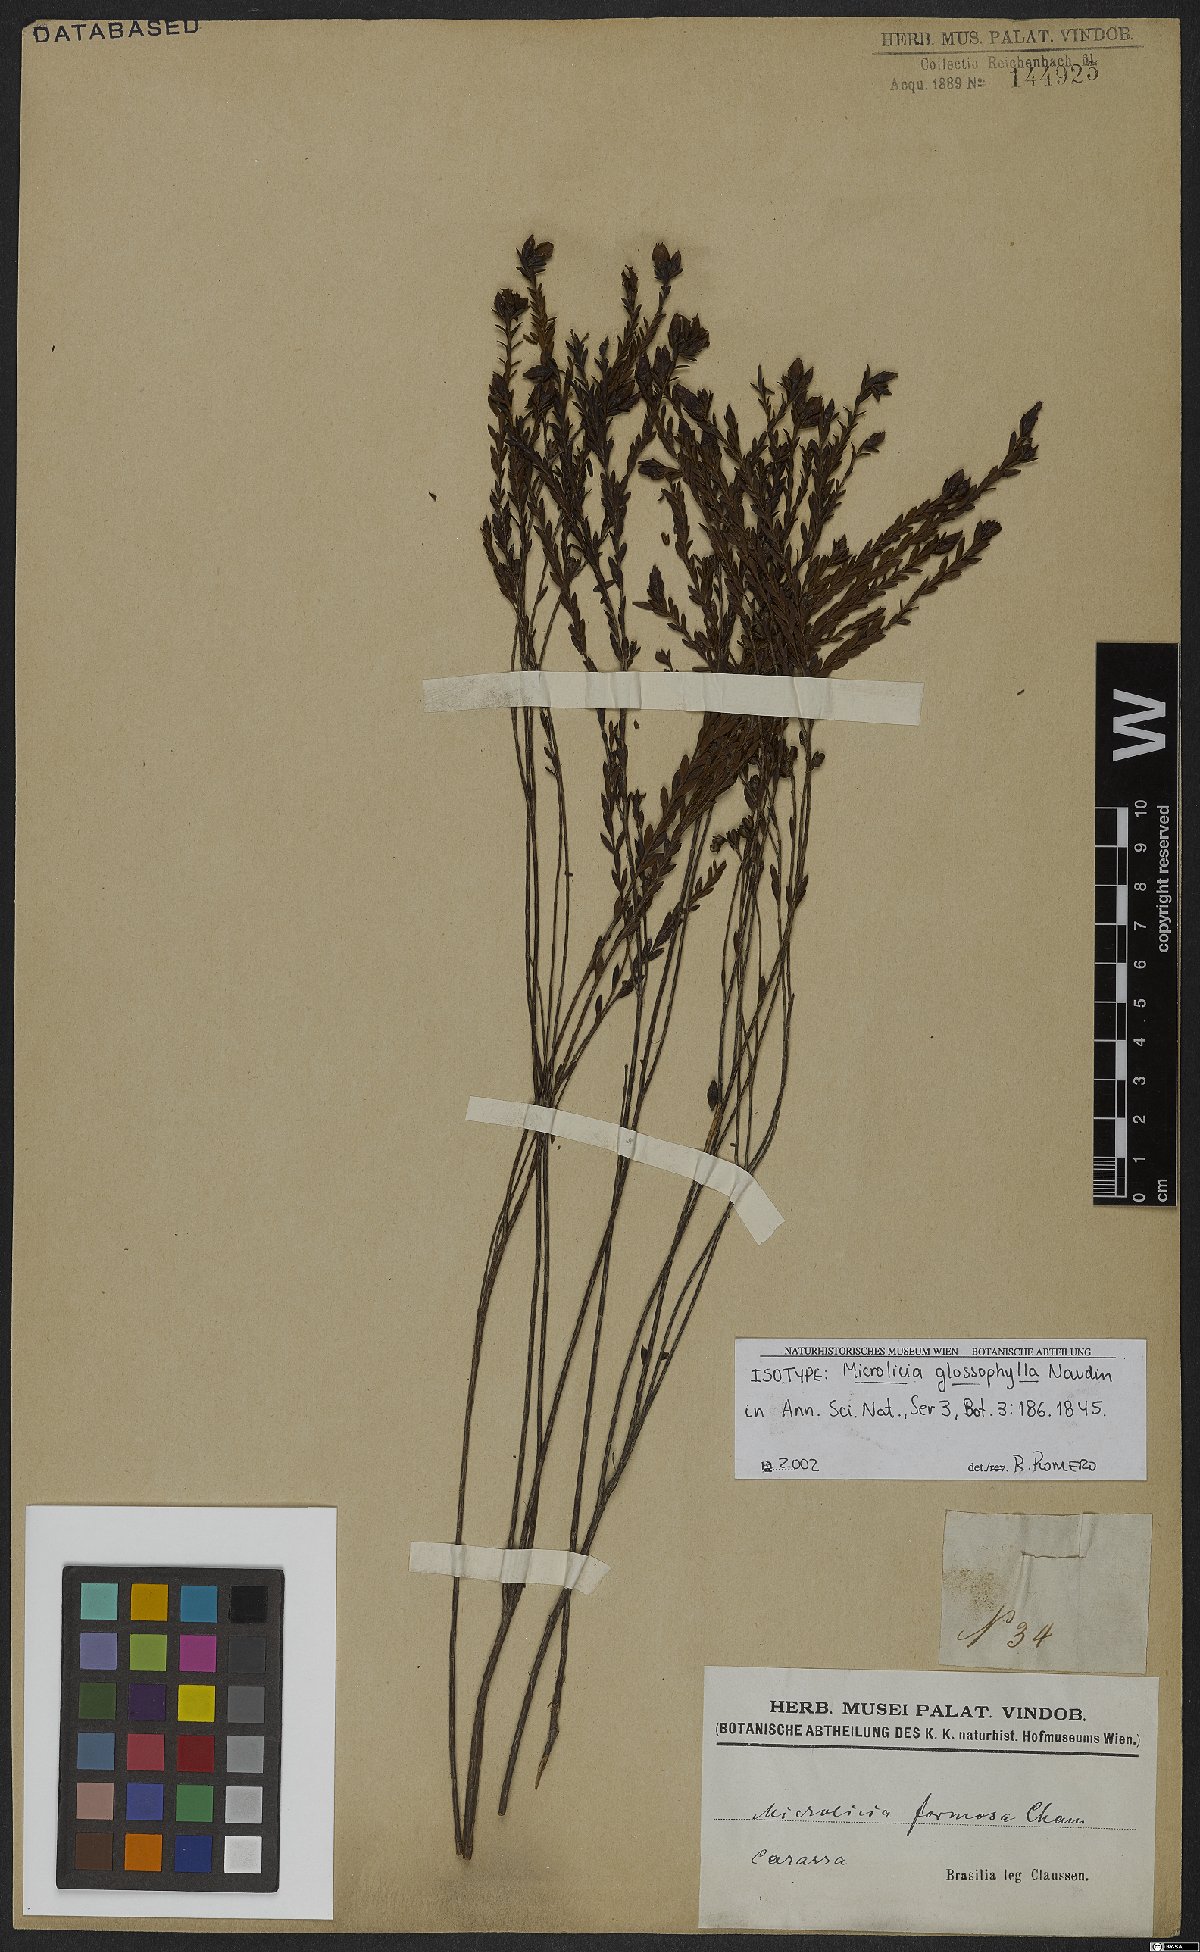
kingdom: Plantae
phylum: Tracheophyta
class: Magnoliopsida
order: Myrtales
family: Melastomataceae
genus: Microlicia
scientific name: Microlicia glossophylla
